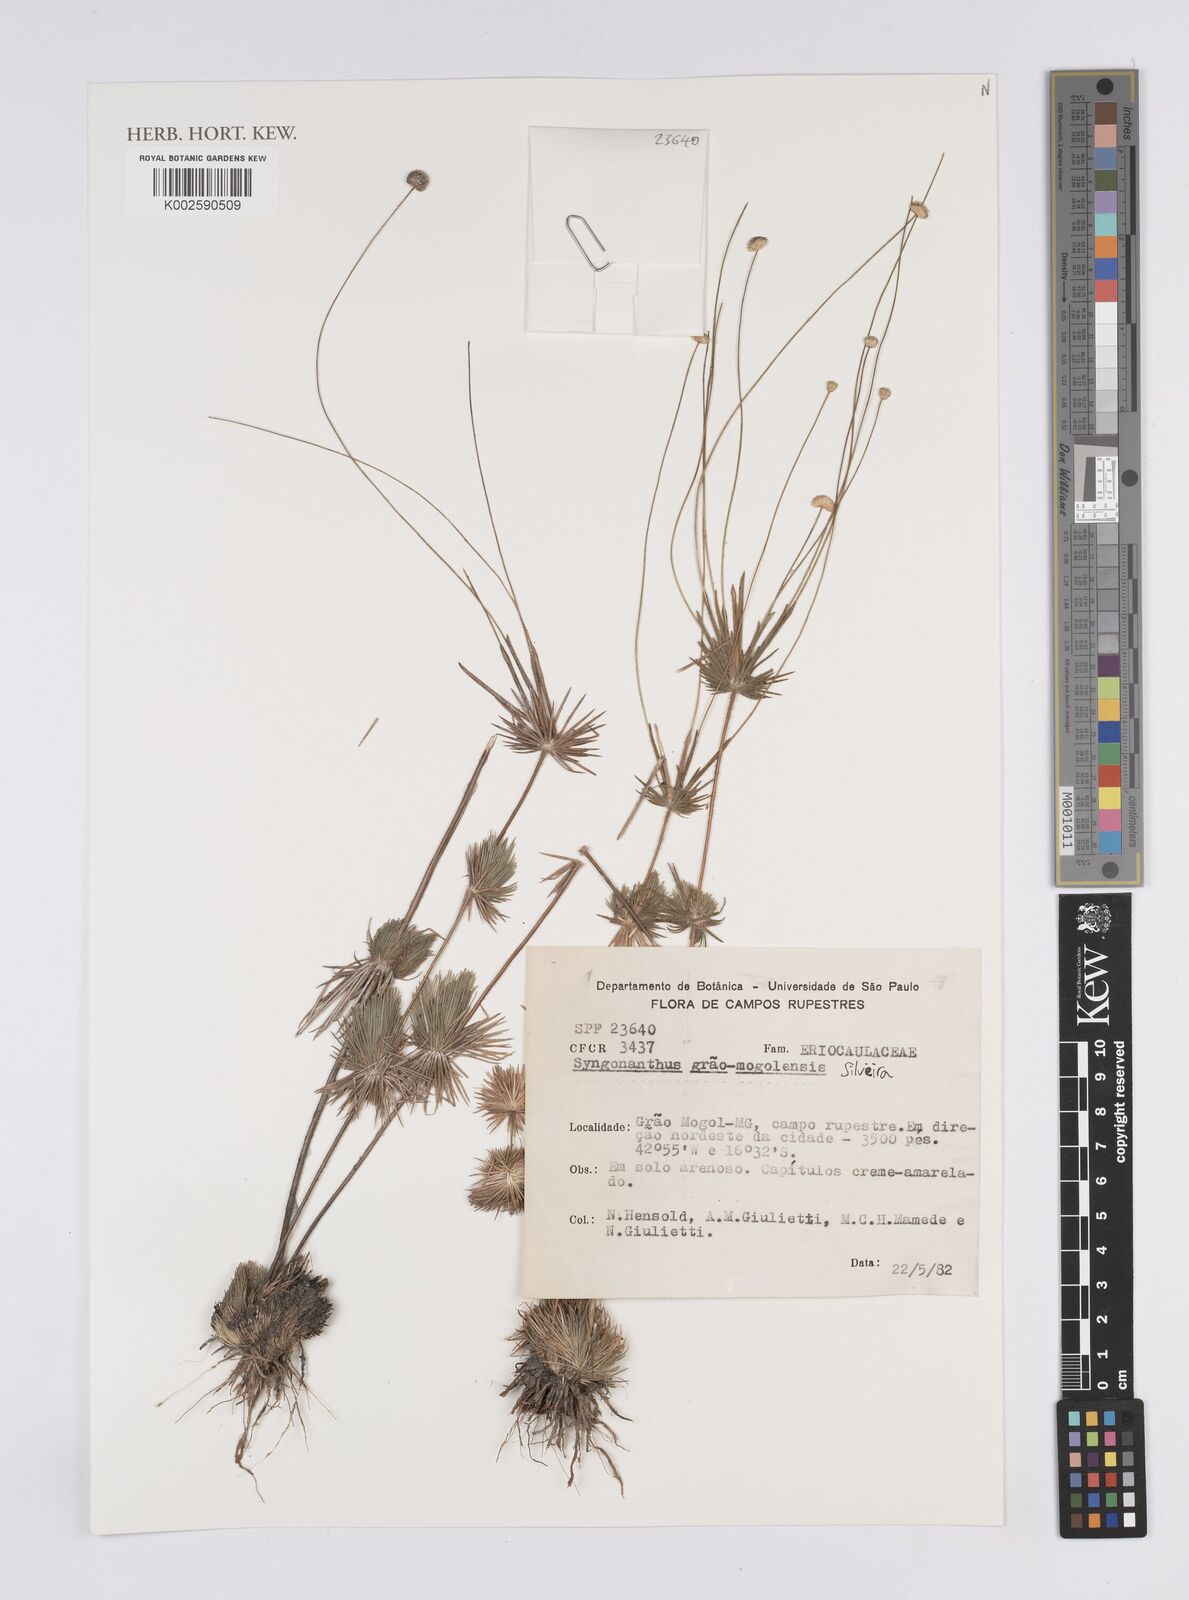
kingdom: Plantae
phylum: Tracheophyta
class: Liliopsida
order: Poales
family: Eriocaulaceae
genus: Syngonanthus
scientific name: Syngonanthus grao-mogolensis
